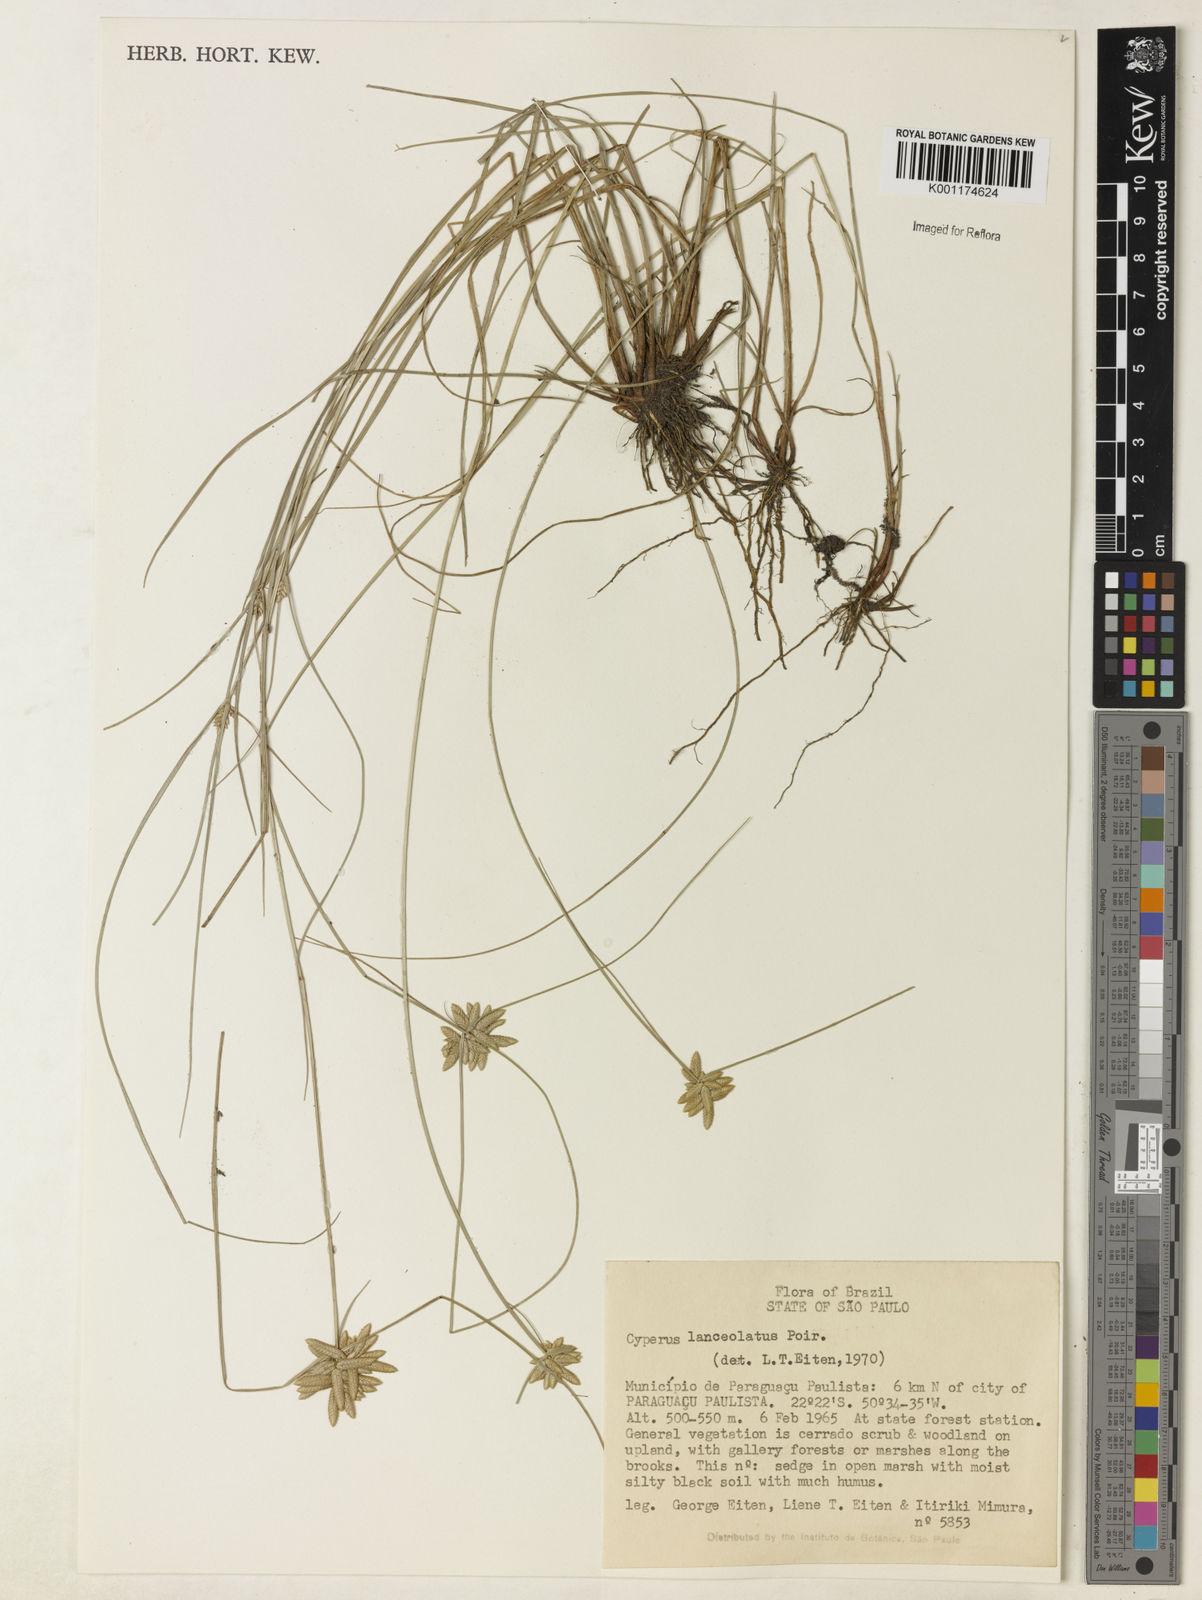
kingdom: Plantae
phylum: Tracheophyta
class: Liliopsida
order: Poales
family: Cyperaceae
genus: Cyperus
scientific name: Cyperus
